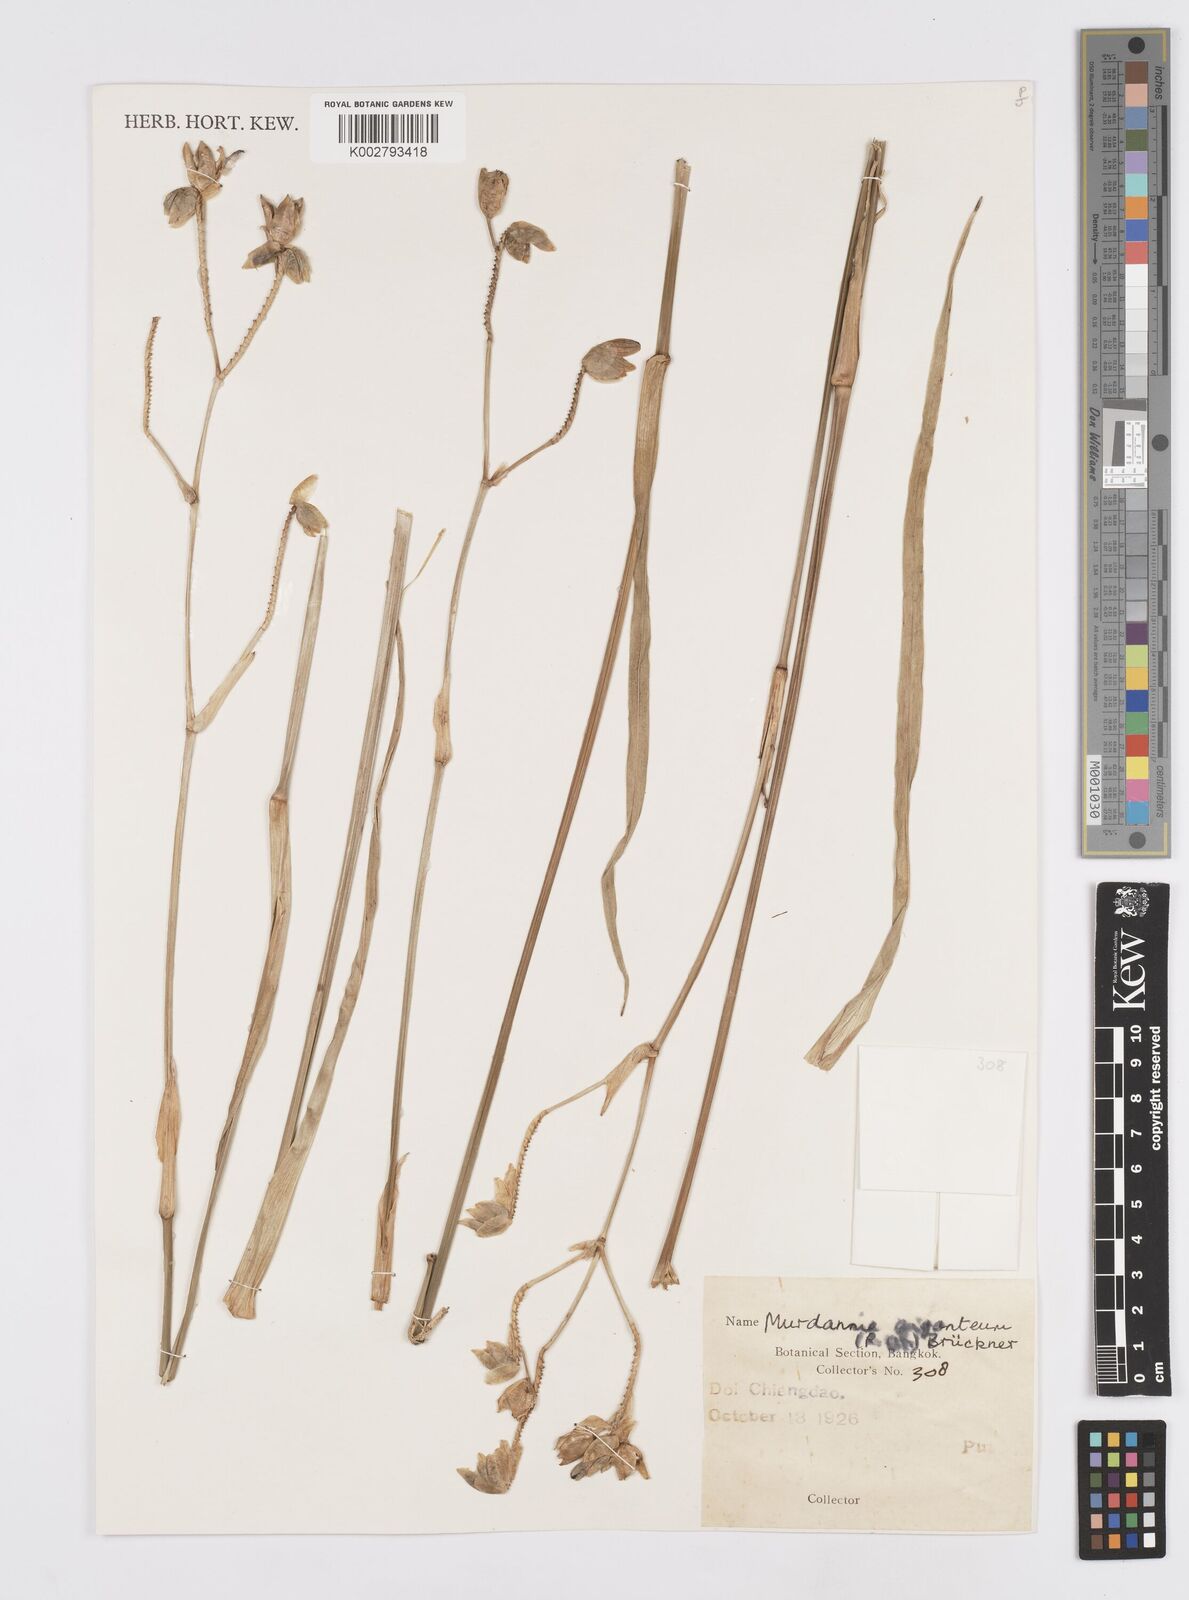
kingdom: Plantae
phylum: Tracheophyta
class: Liliopsida
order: Commelinales
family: Commelinaceae
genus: Murdannia
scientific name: Murdannia gigantea
